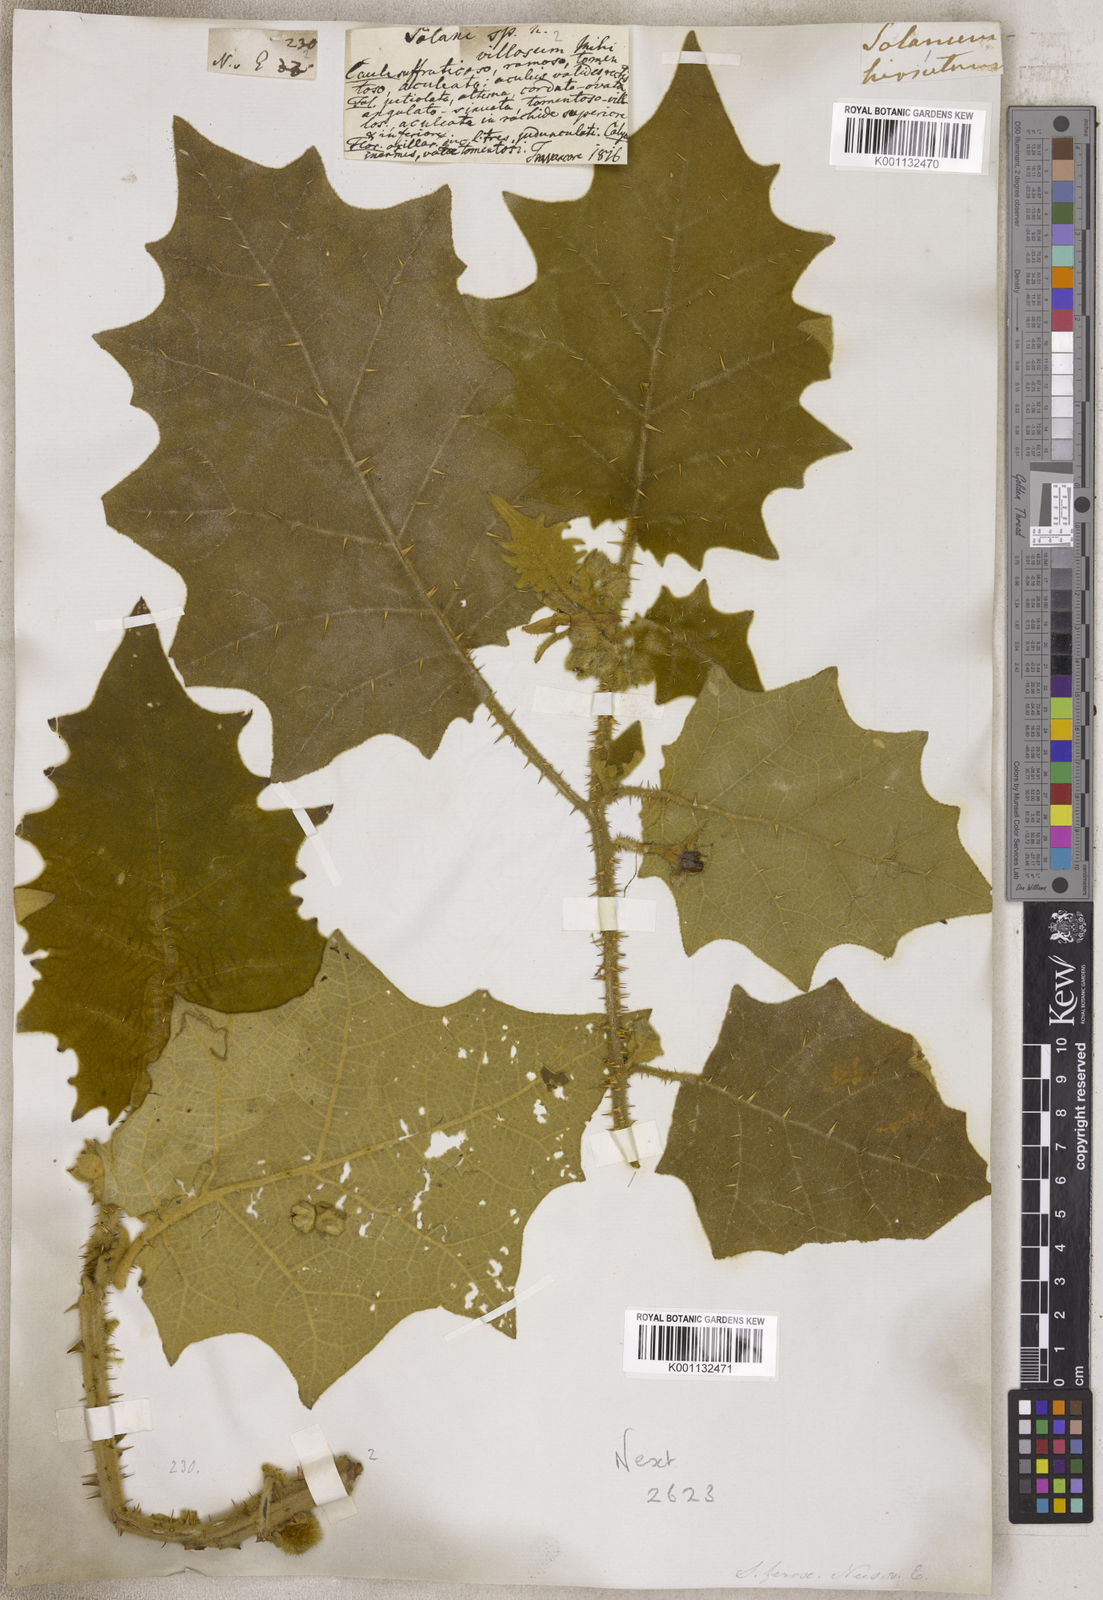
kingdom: Plantae
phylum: Tracheophyta
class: Magnoliopsida
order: Solanales
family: Solanaceae
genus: Solanum
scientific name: Solanum
